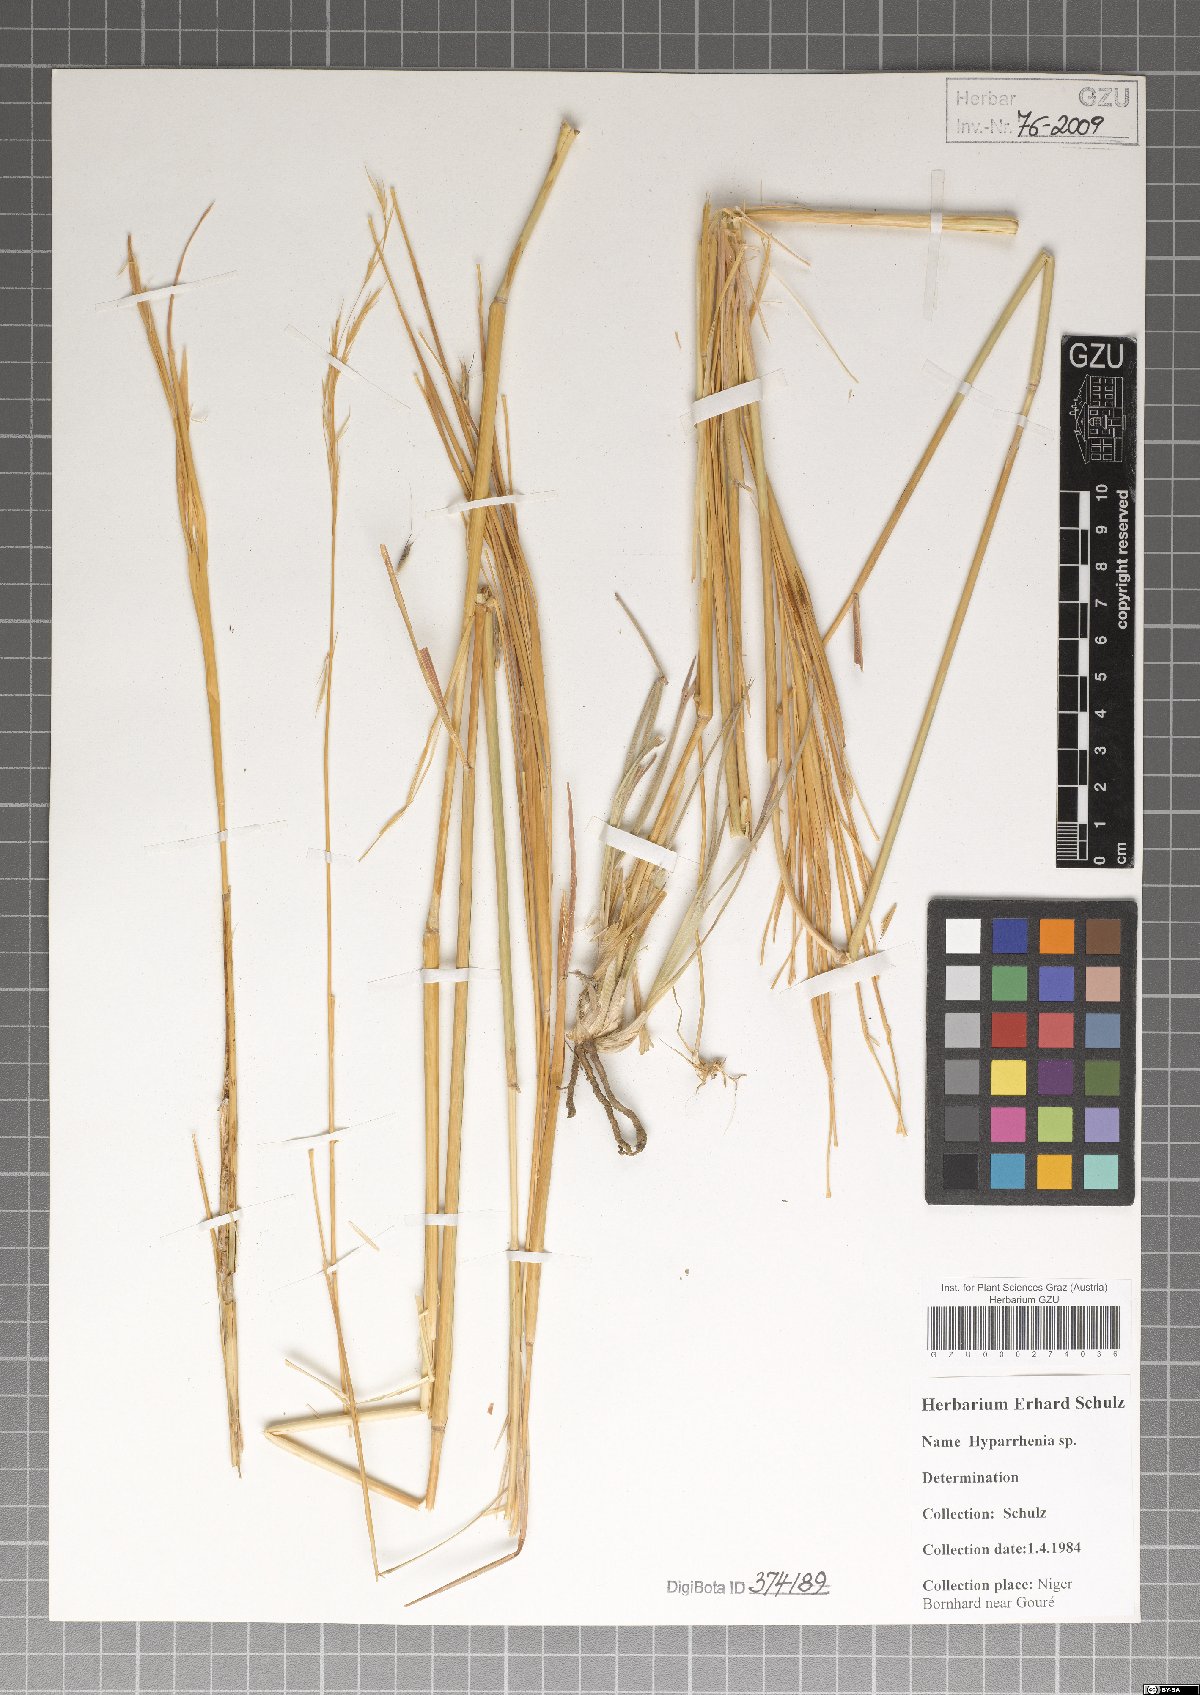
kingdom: Plantae
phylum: Tracheophyta
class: Liliopsida
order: Poales
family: Poaceae
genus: Hyparrhenia
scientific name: Hyparrhenia
